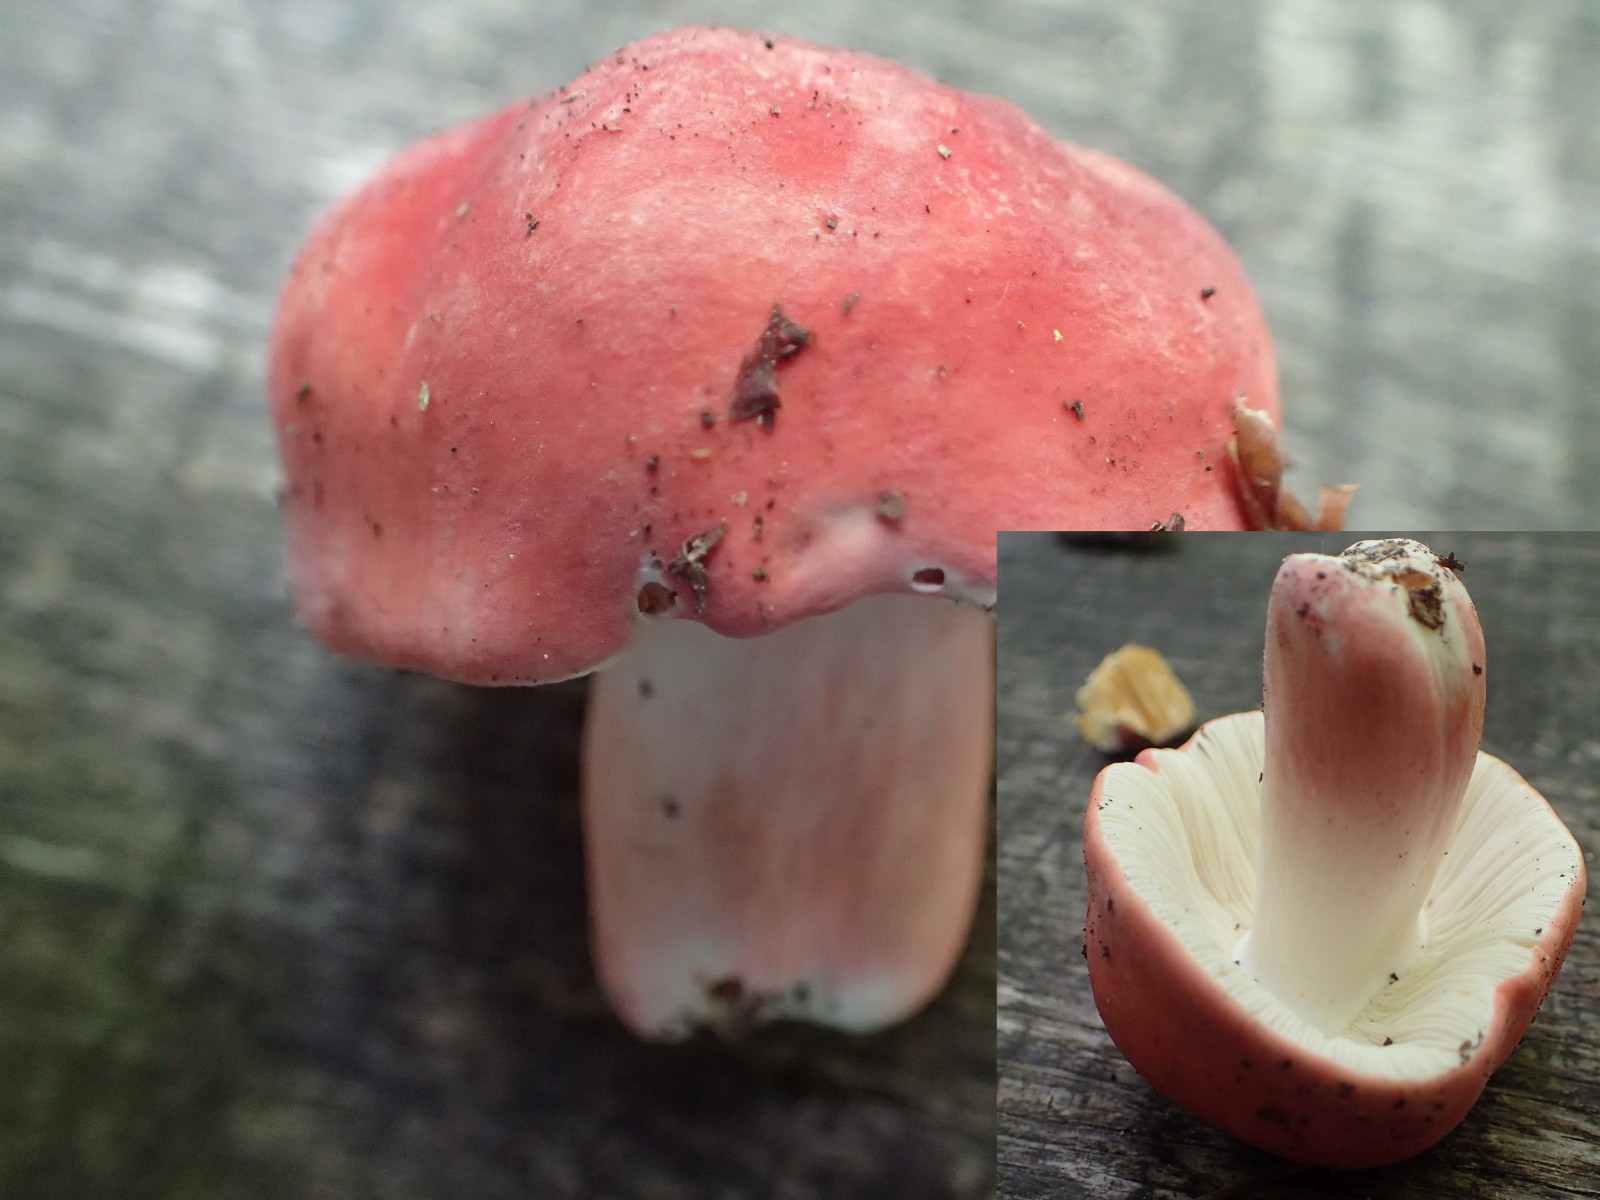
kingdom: Fungi
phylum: Basidiomycota
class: Agaricomycetes
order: Russulales
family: Russulaceae
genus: Russula
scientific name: Russula rosea
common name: fastkødet skørhat
